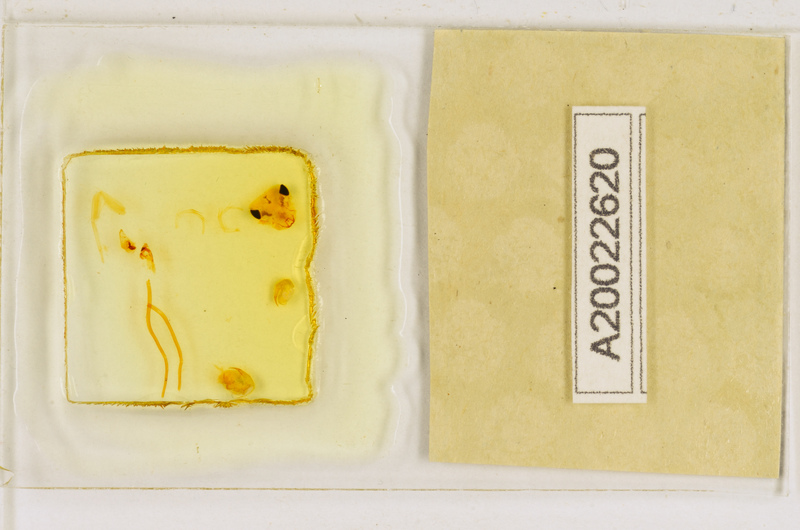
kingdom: Animalia
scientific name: Animalia
